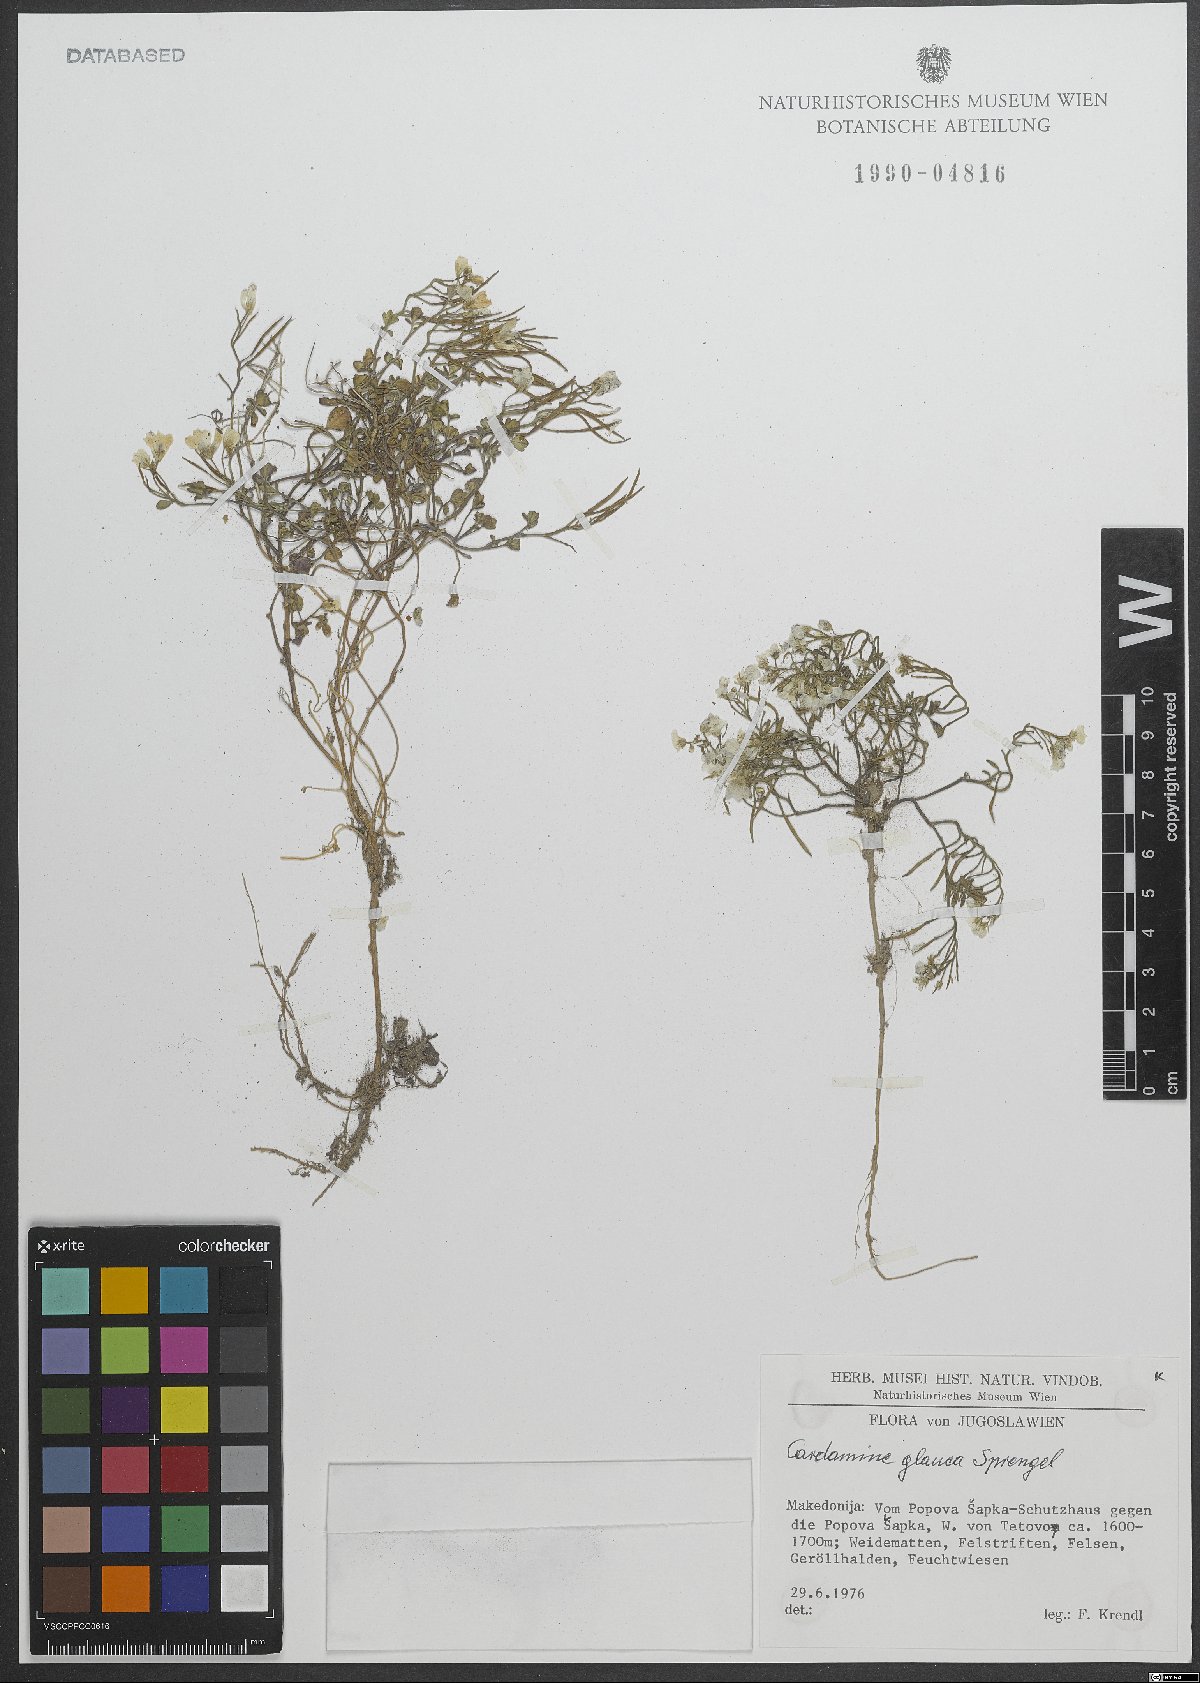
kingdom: Plantae
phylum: Tracheophyta
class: Magnoliopsida
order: Brassicales
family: Brassicaceae
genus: Cardamine
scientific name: Cardamine glauca
